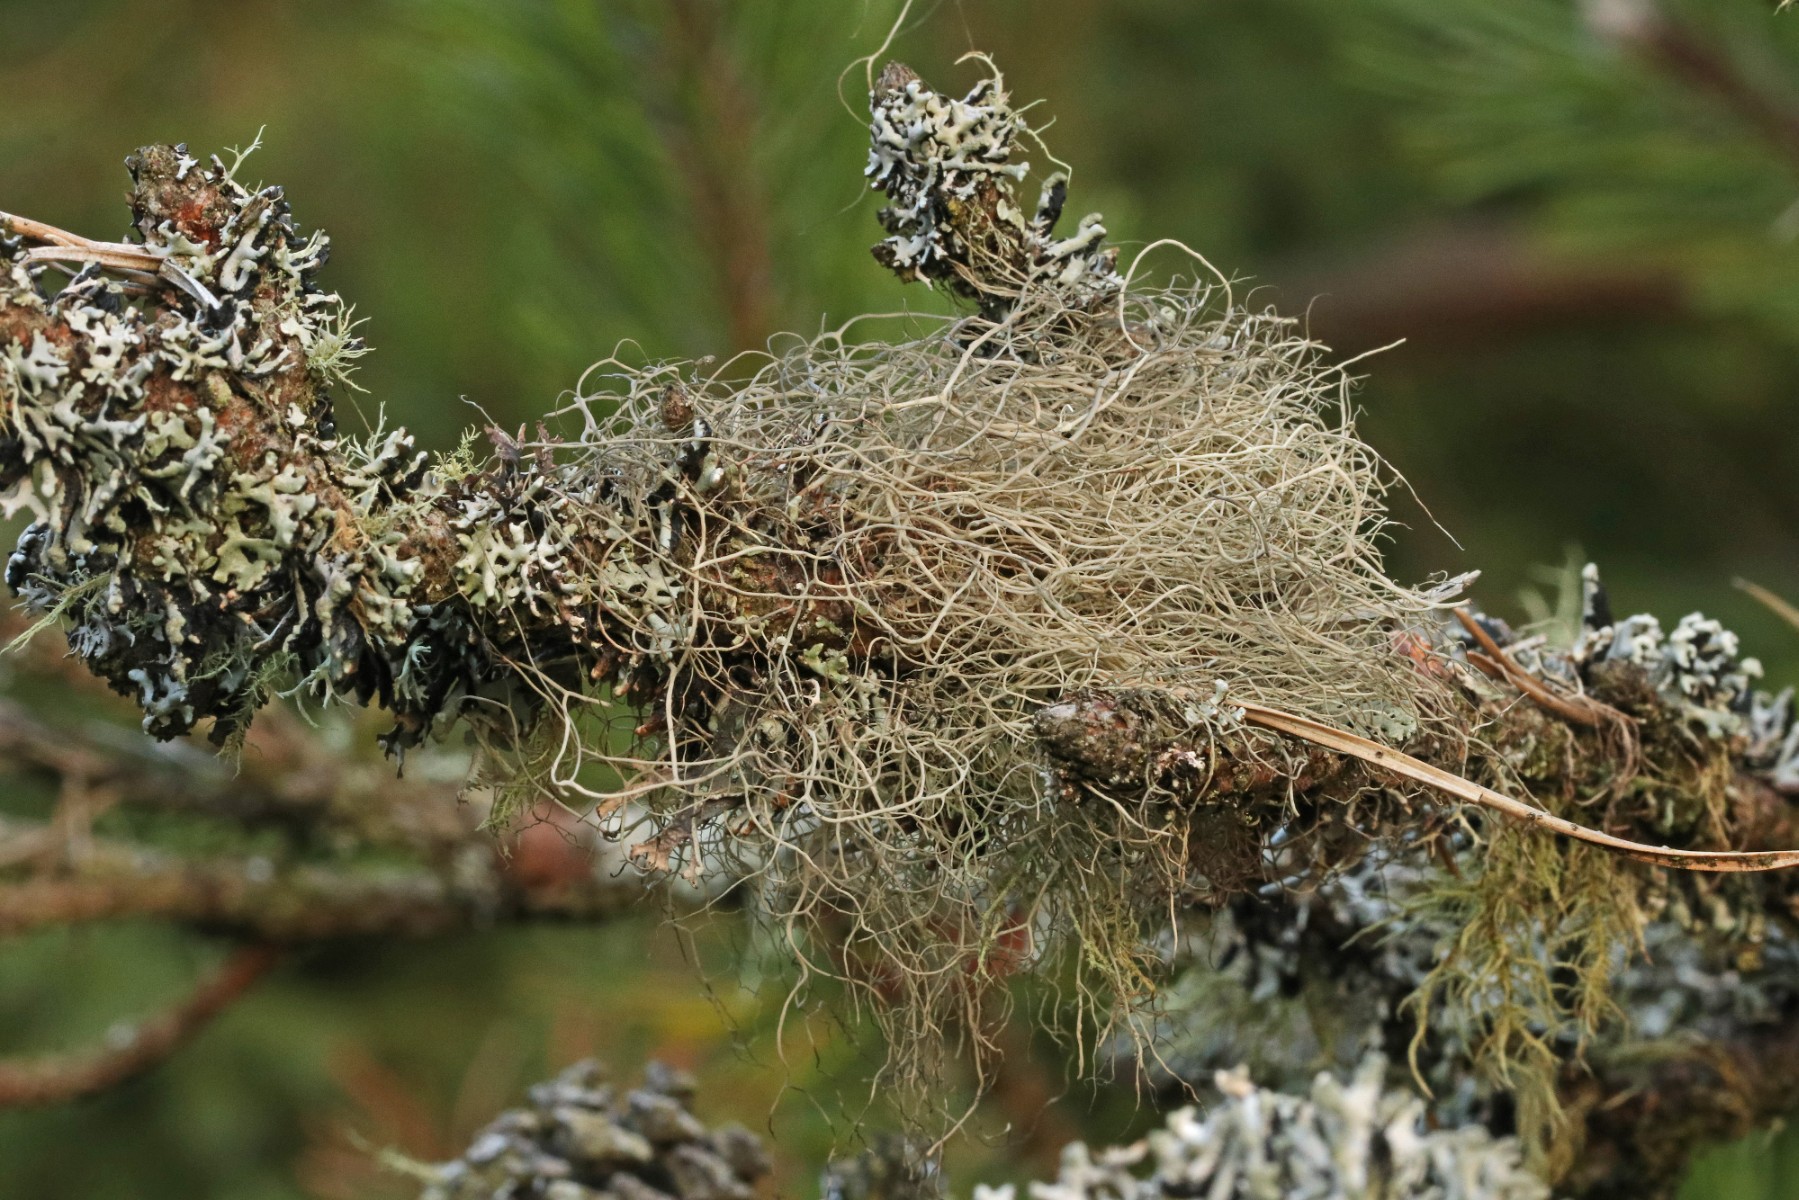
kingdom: Fungi
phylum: Ascomycota
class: Lecanoromycetes
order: Lecanorales
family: Parmeliaceae
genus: Bryoria
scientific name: Bryoria capillaris
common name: grå mankelav
